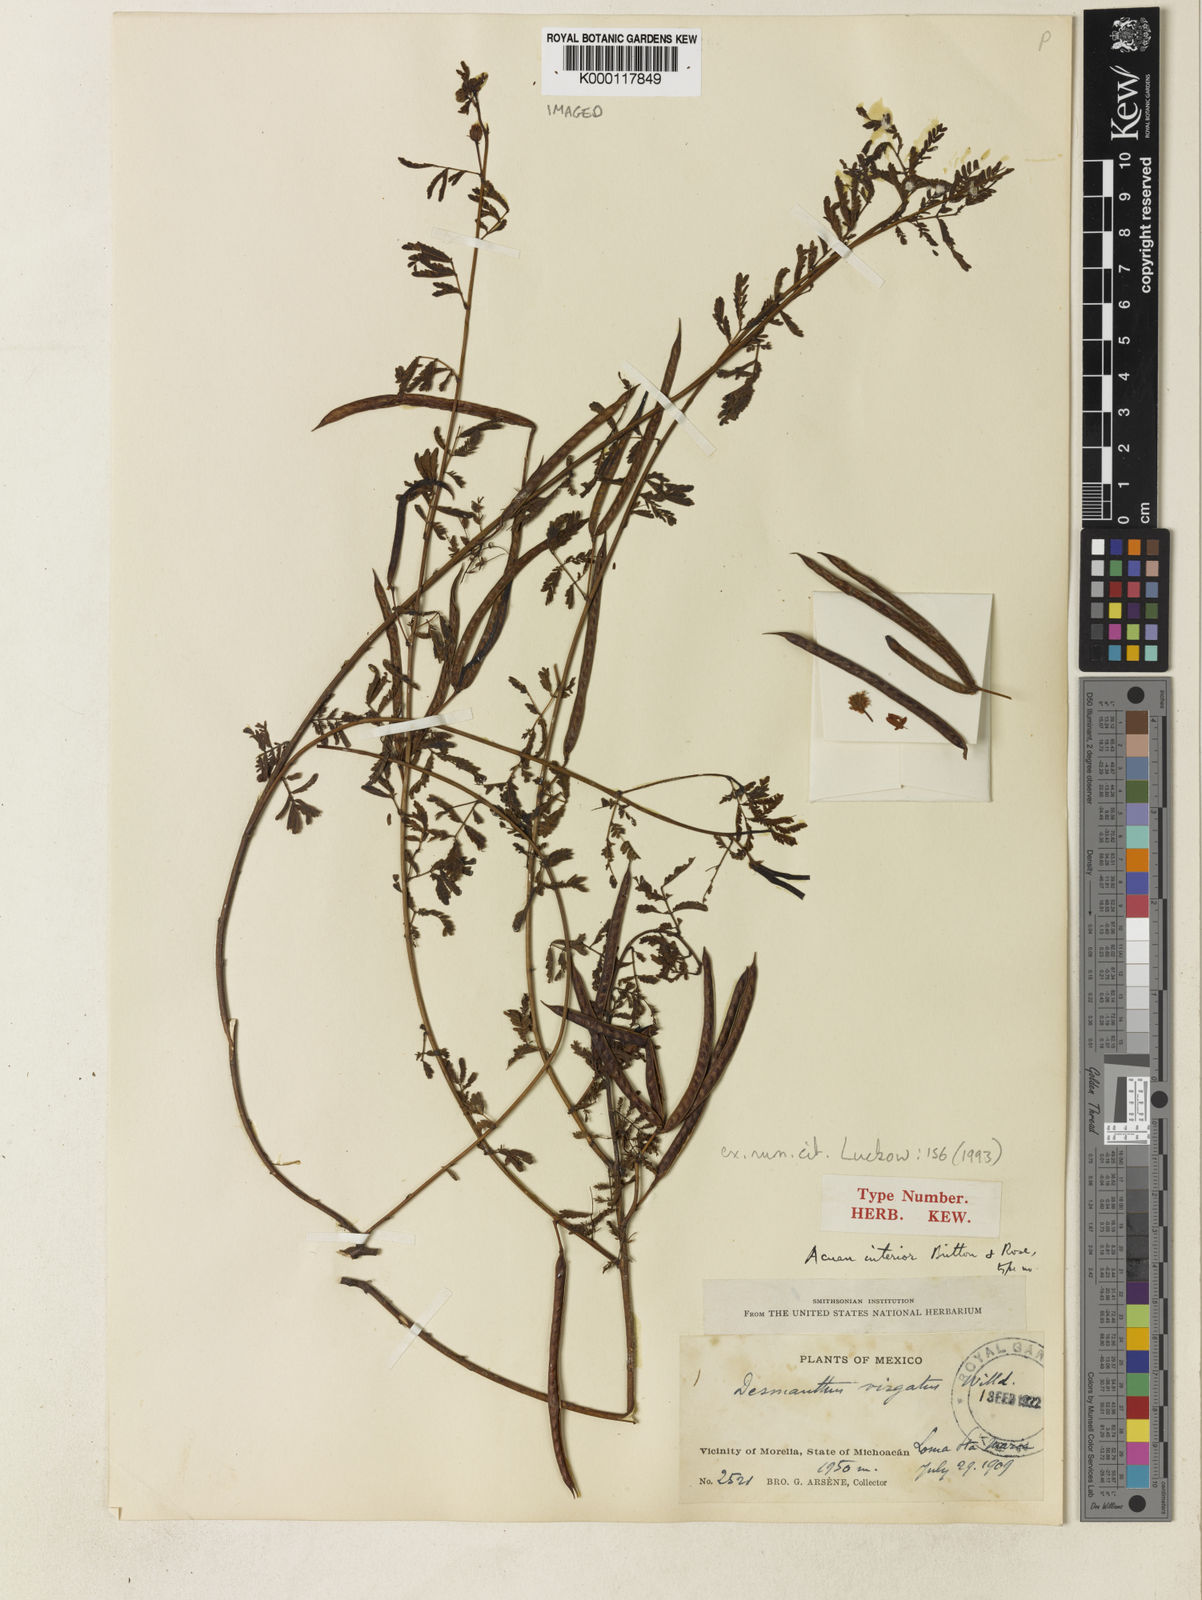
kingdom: Plantae
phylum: Tracheophyta
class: Magnoliopsida
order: Fabales
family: Fabaceae
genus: Desmanthus
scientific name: Desmanthus virgatus
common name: Wild tantan
